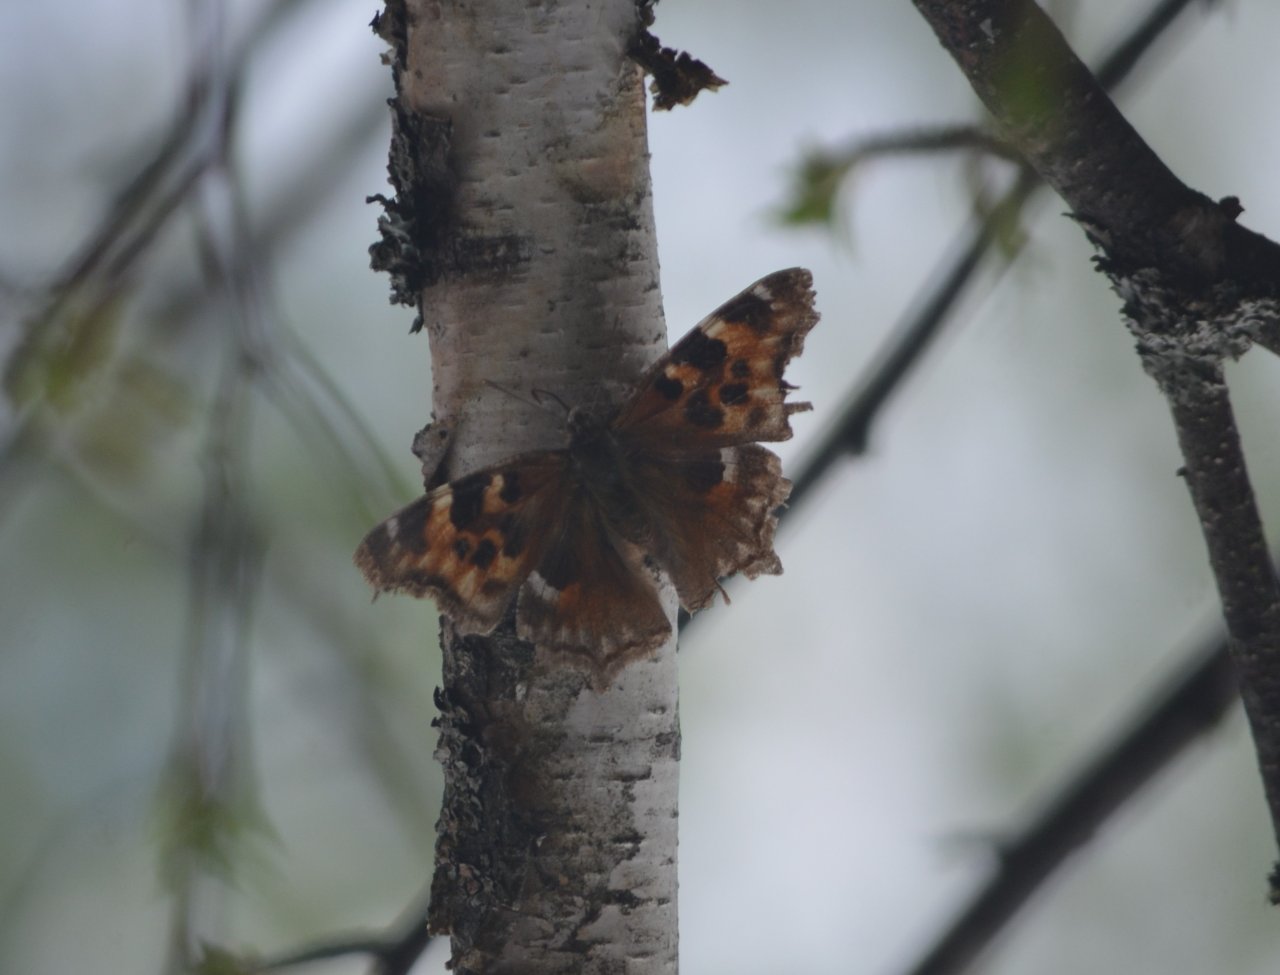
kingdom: Animalia
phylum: Arthropoda
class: Insecta
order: Lepidoptera
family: Nymphalidae
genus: Polygonia
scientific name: Polygonia vaualbum
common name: Compton Tortoiseshell
